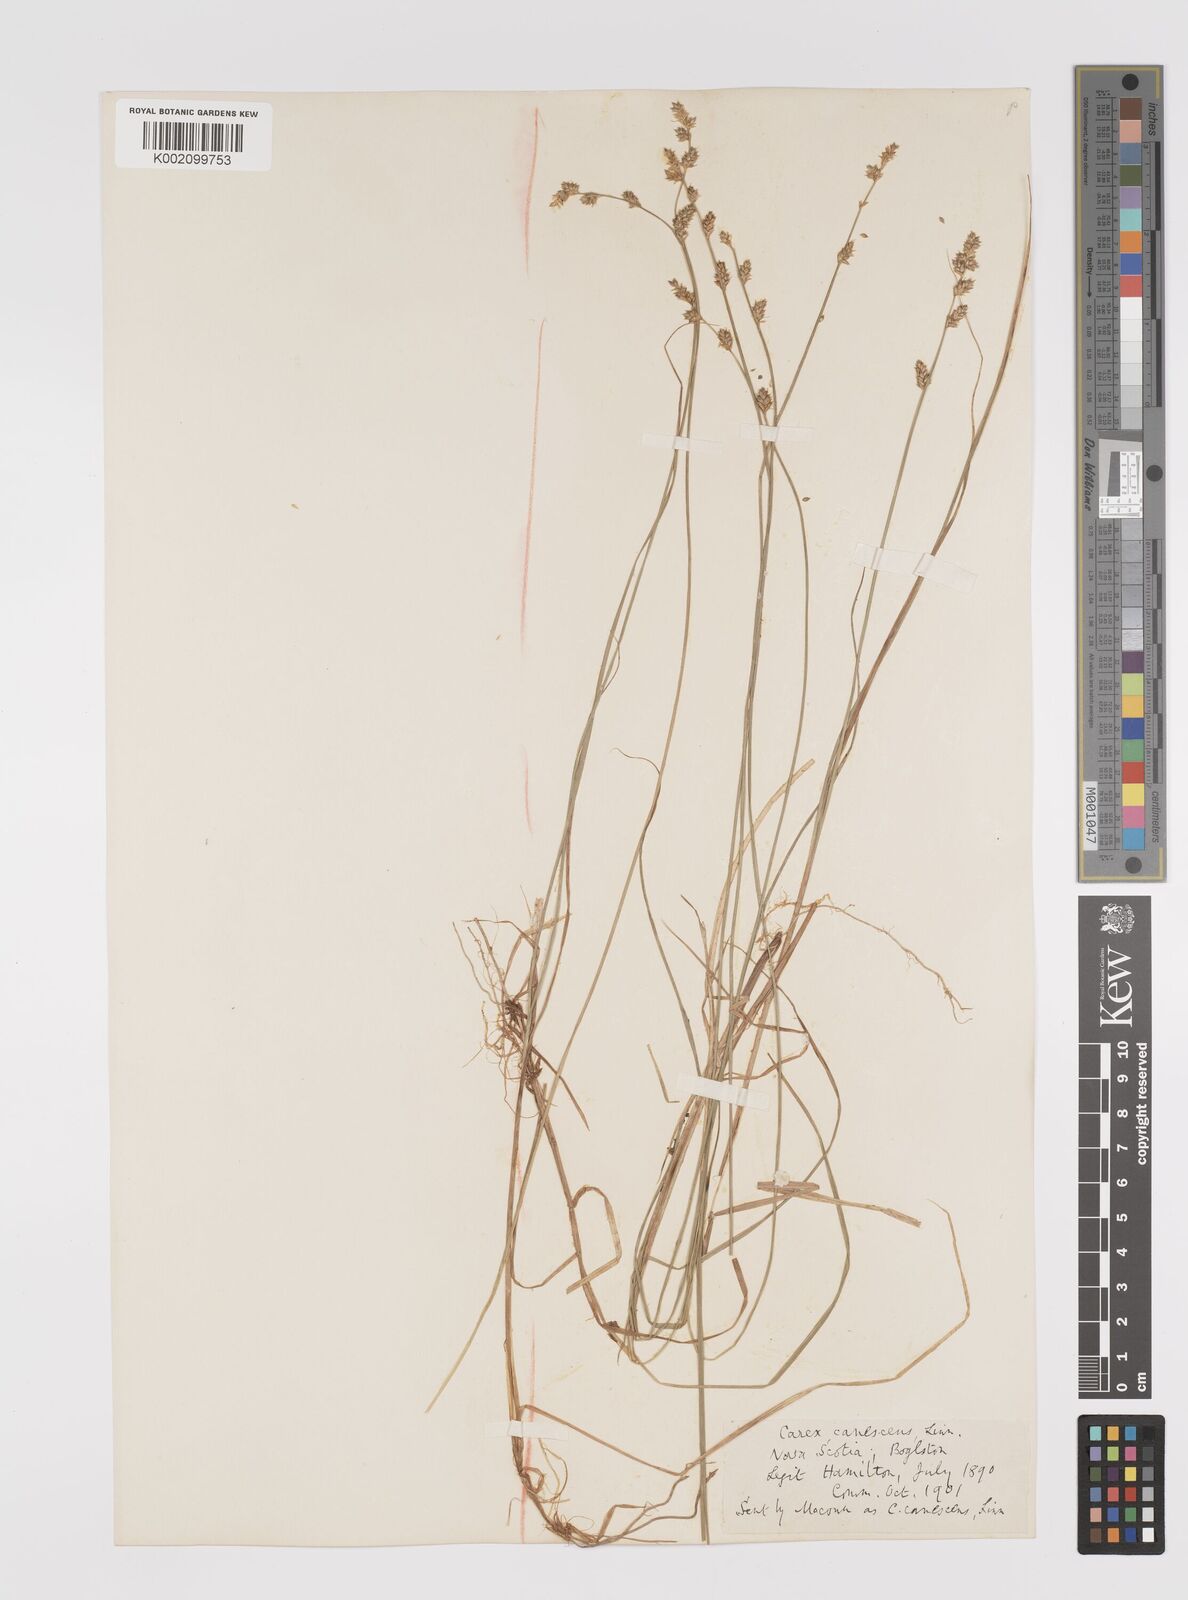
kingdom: Plantae
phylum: Tracheophyta
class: Liliopsida
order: Poales
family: Cyperaceae
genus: Carex
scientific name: Carex curta
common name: White sedge
